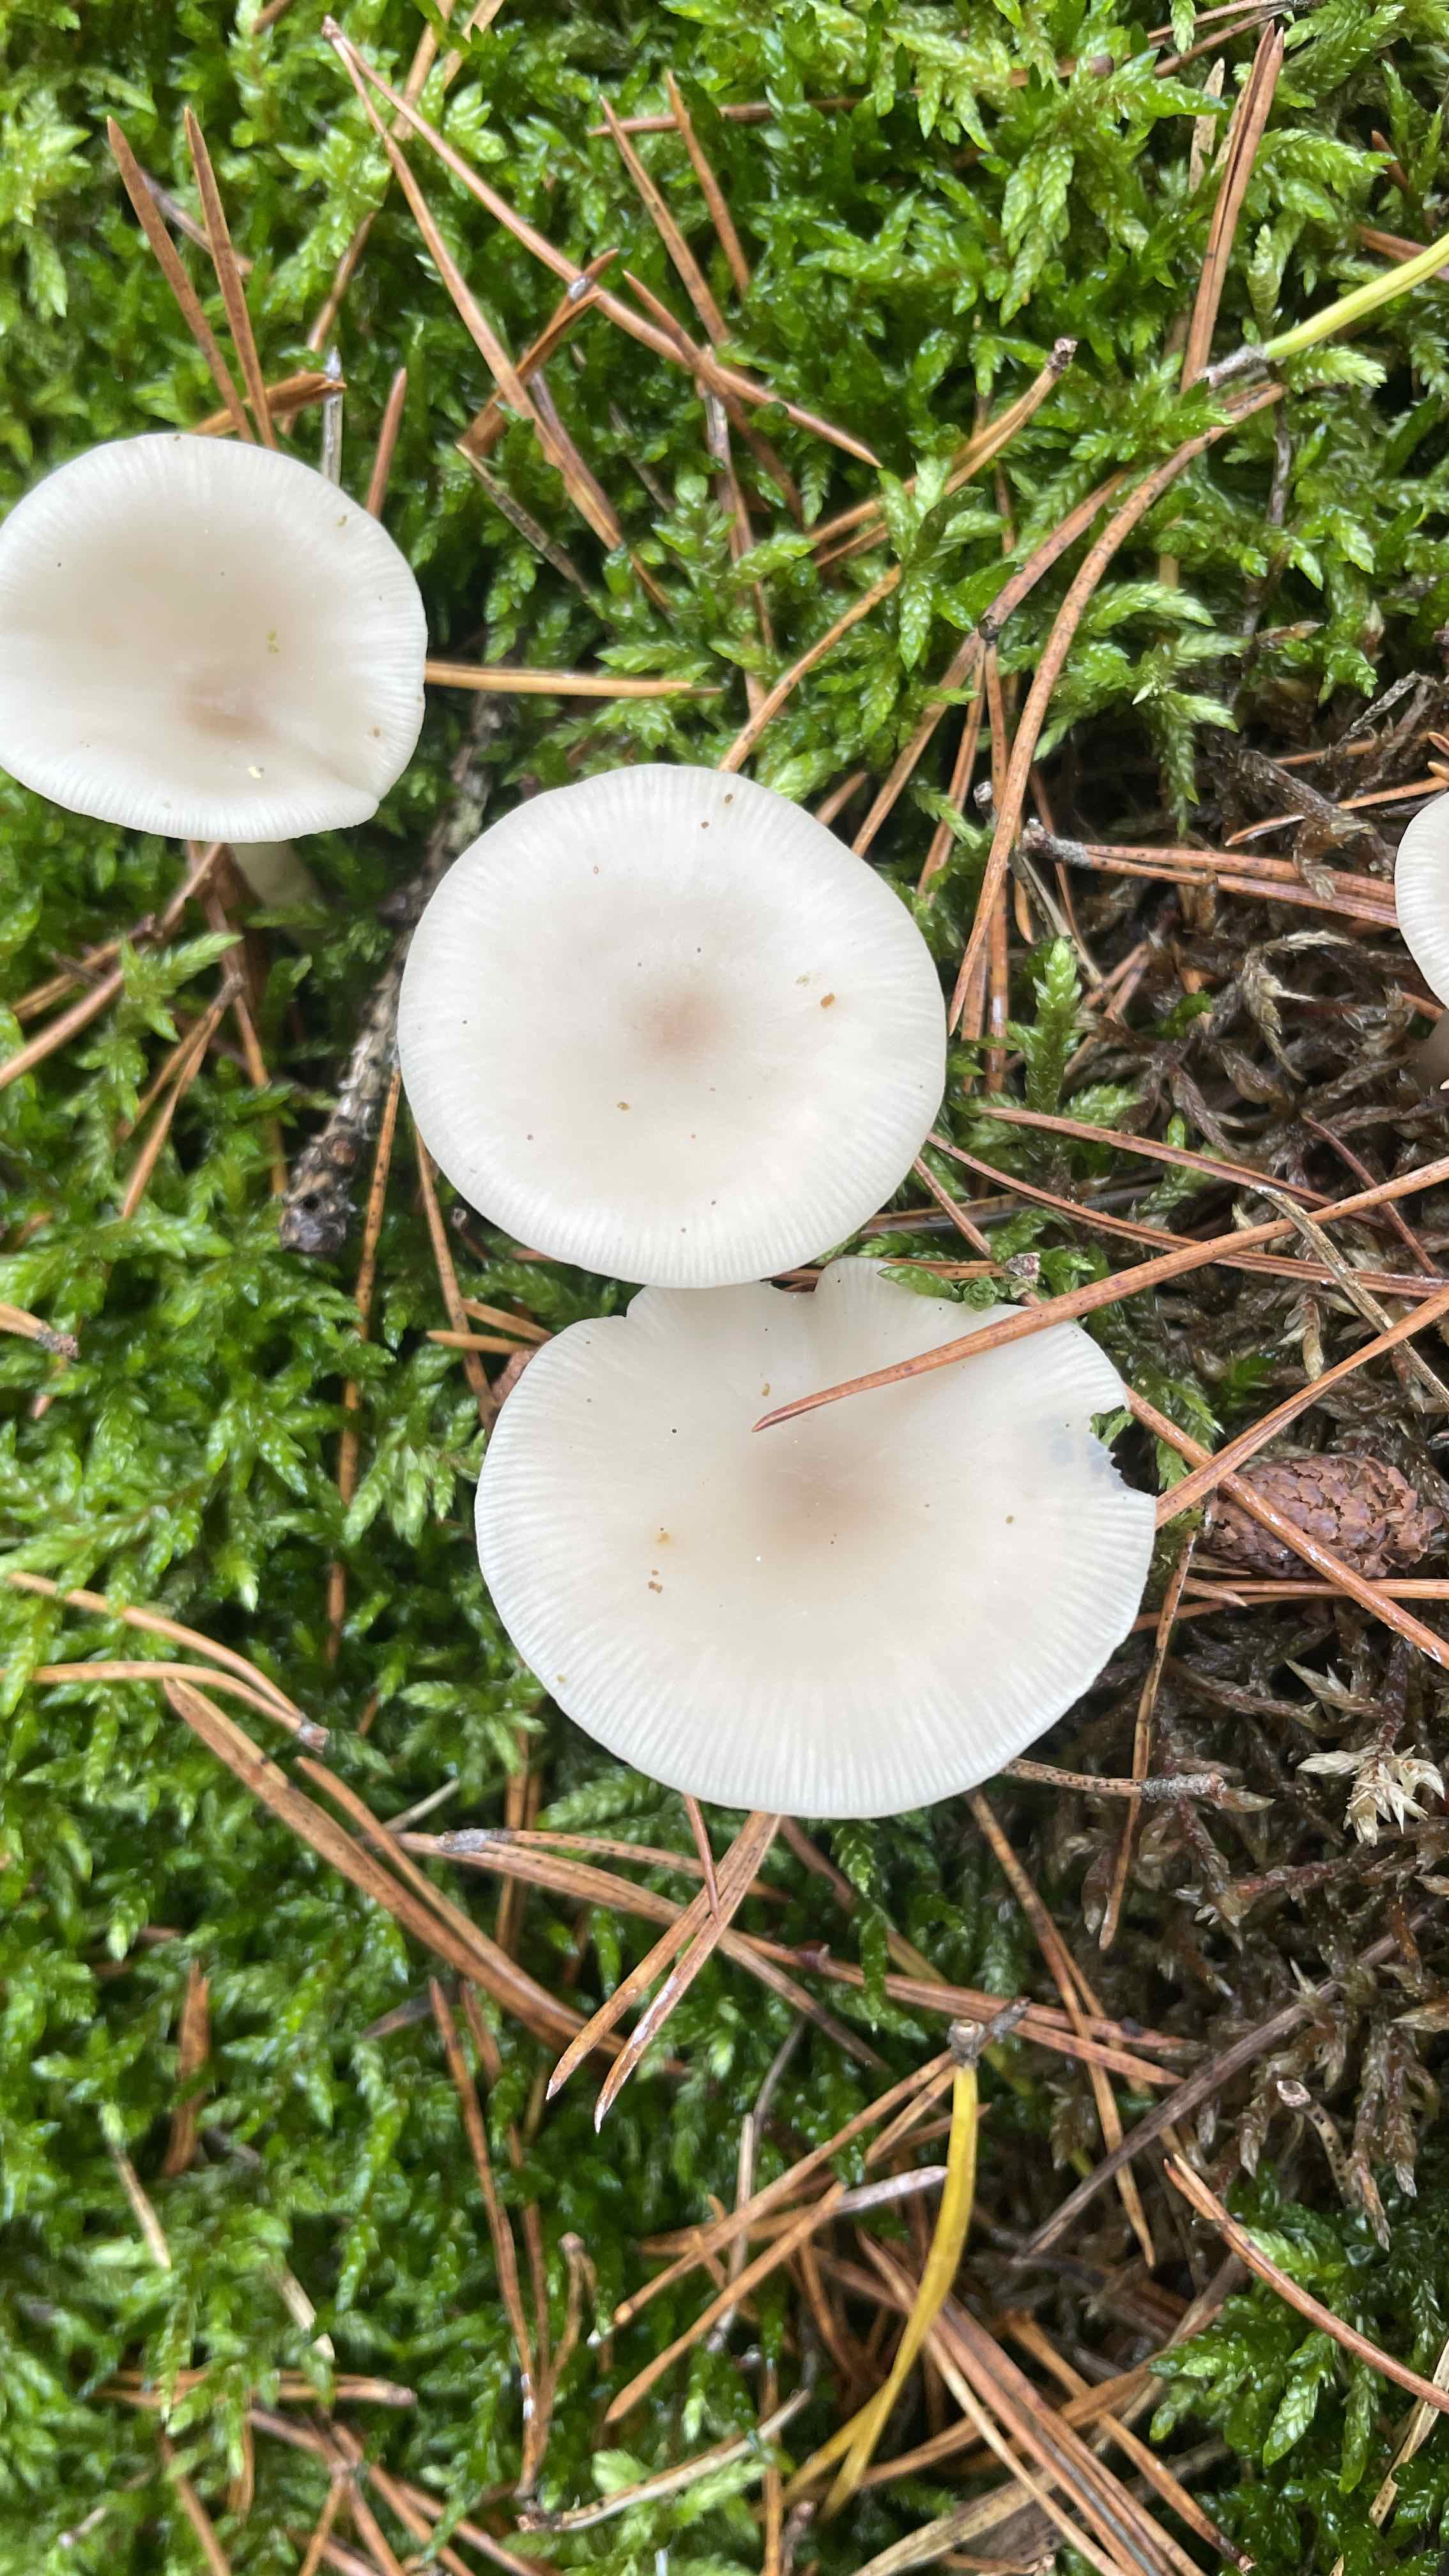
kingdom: Fungi
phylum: Basidiomycota
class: Agaricomycetes
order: Agaricales
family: Tricholomataceae
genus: Clitocybe
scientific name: Clitocybe
